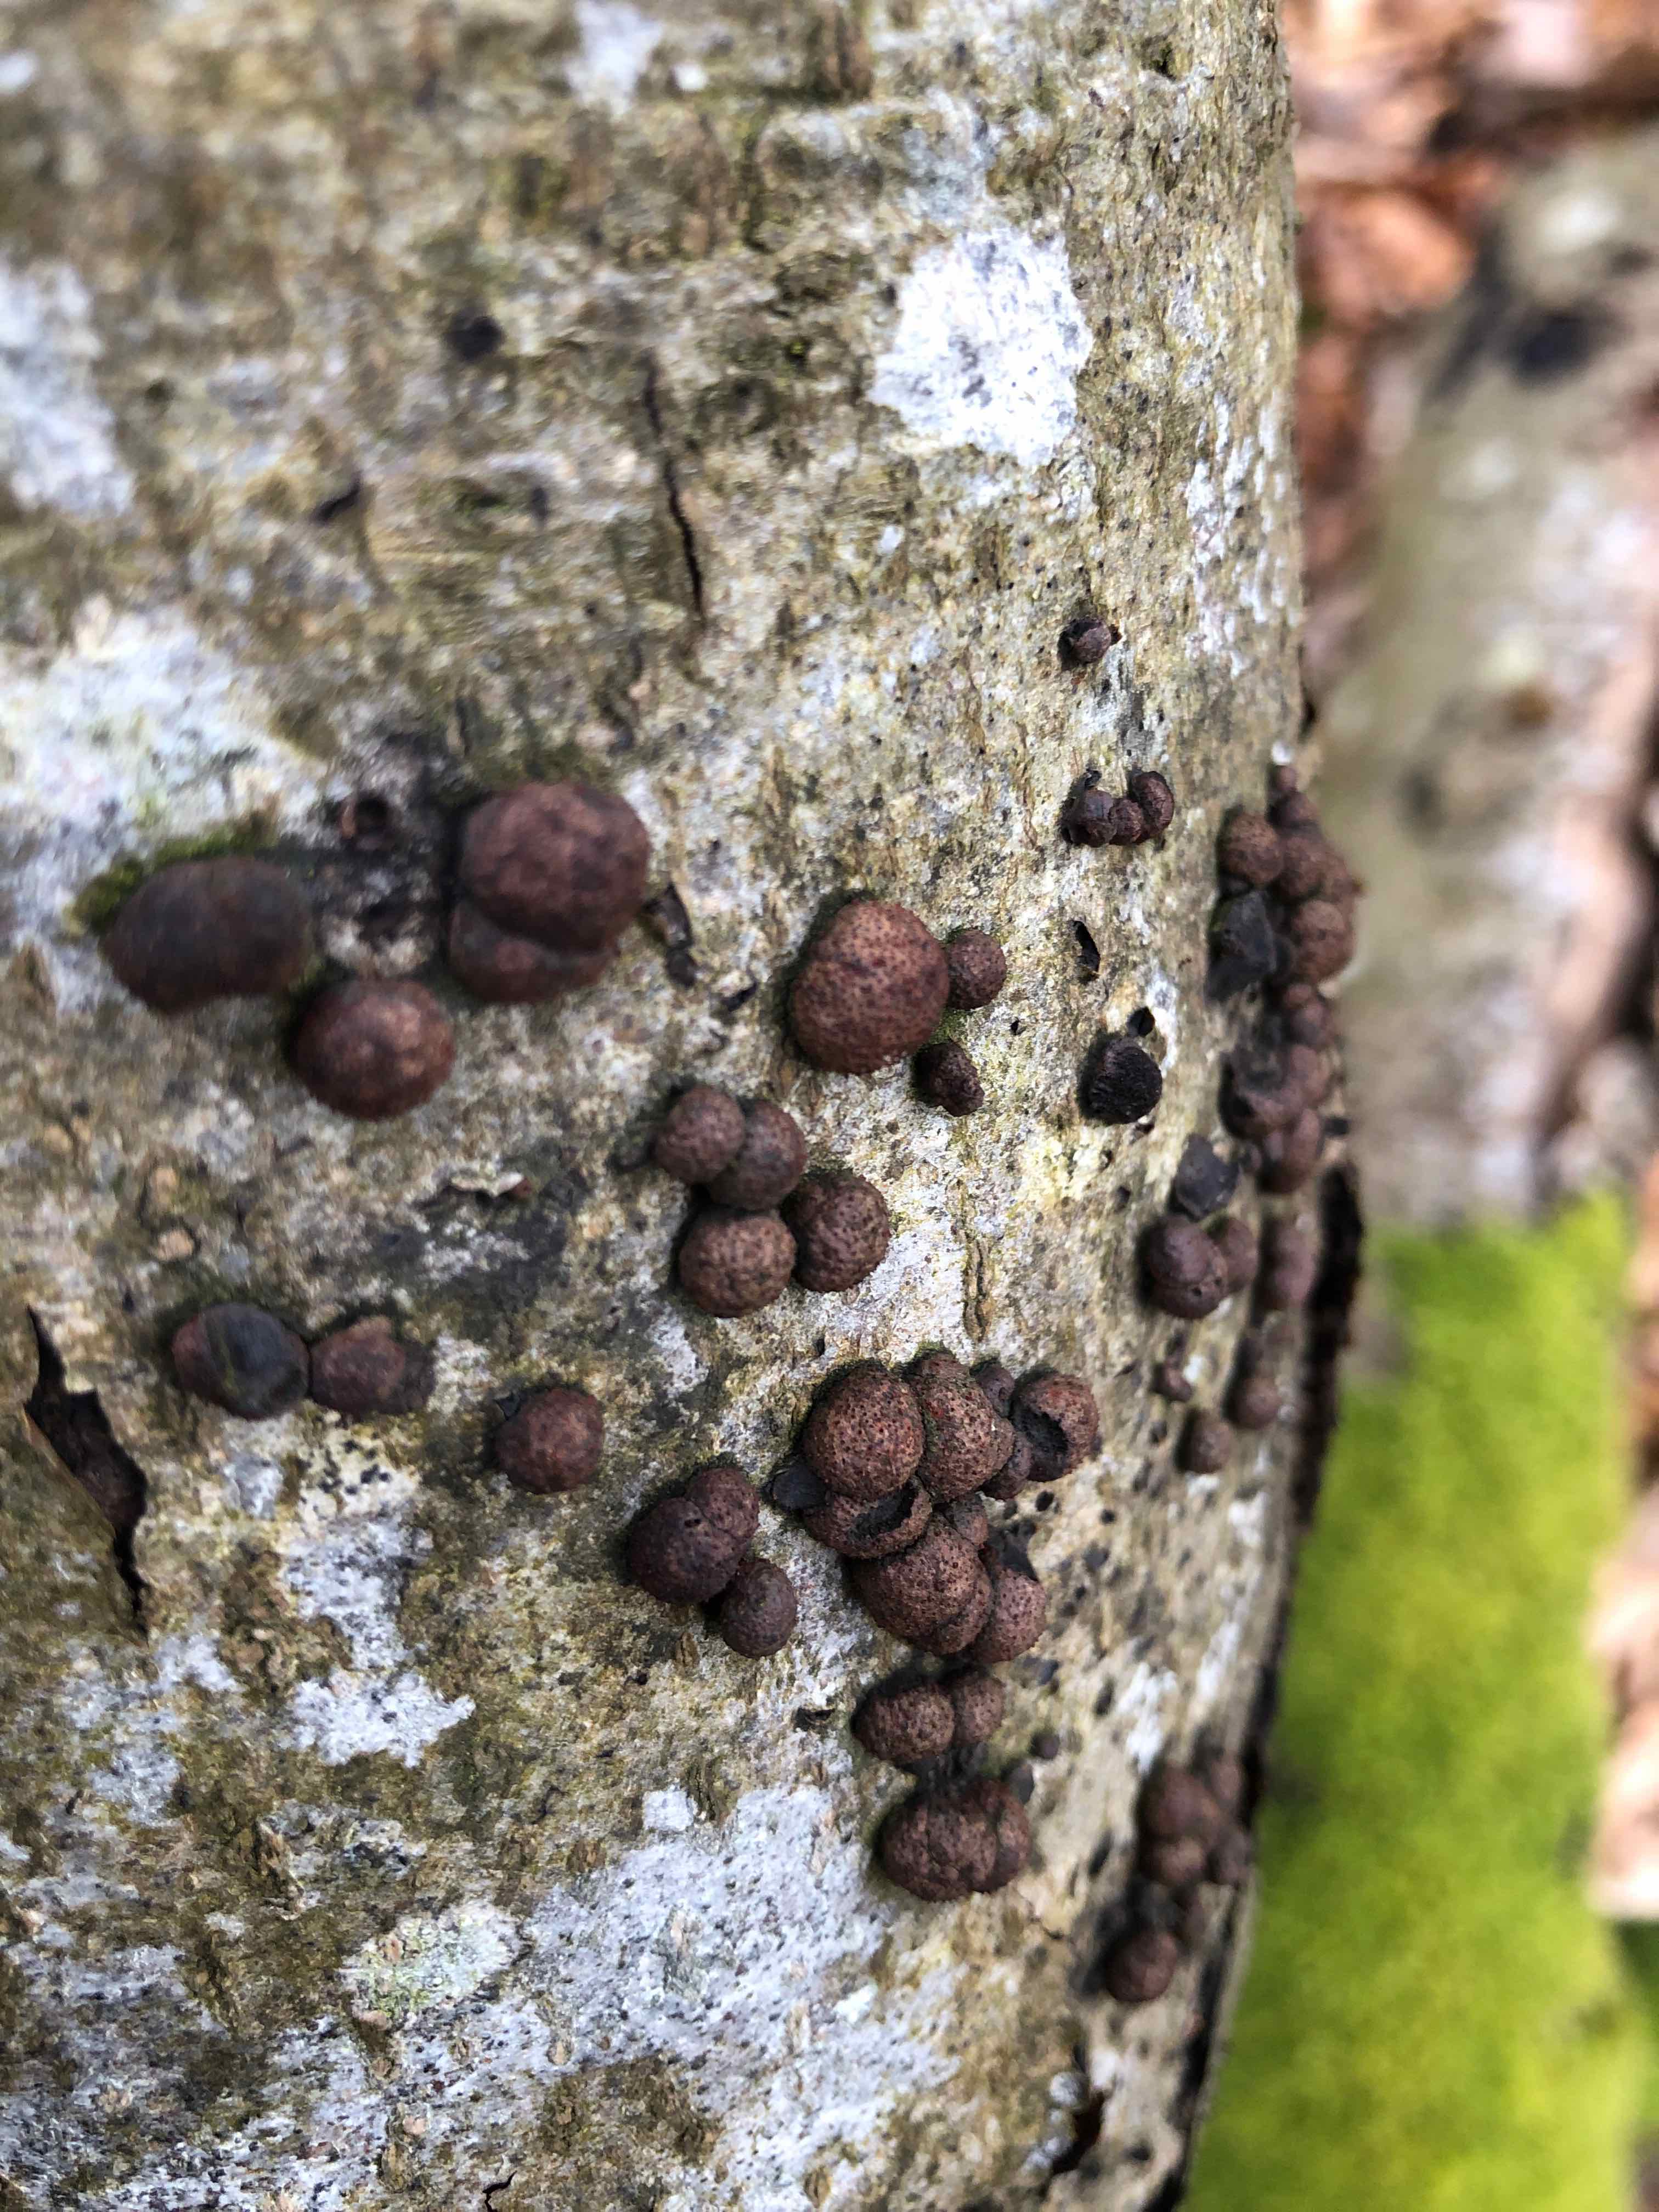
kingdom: Fungi
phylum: Ascomycota
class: Sordariomycetes
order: Hypocreales
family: Nectriaceae
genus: Cosmospora
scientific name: Cosmospora arxii
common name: kuljordbær-cinnobersvamp
